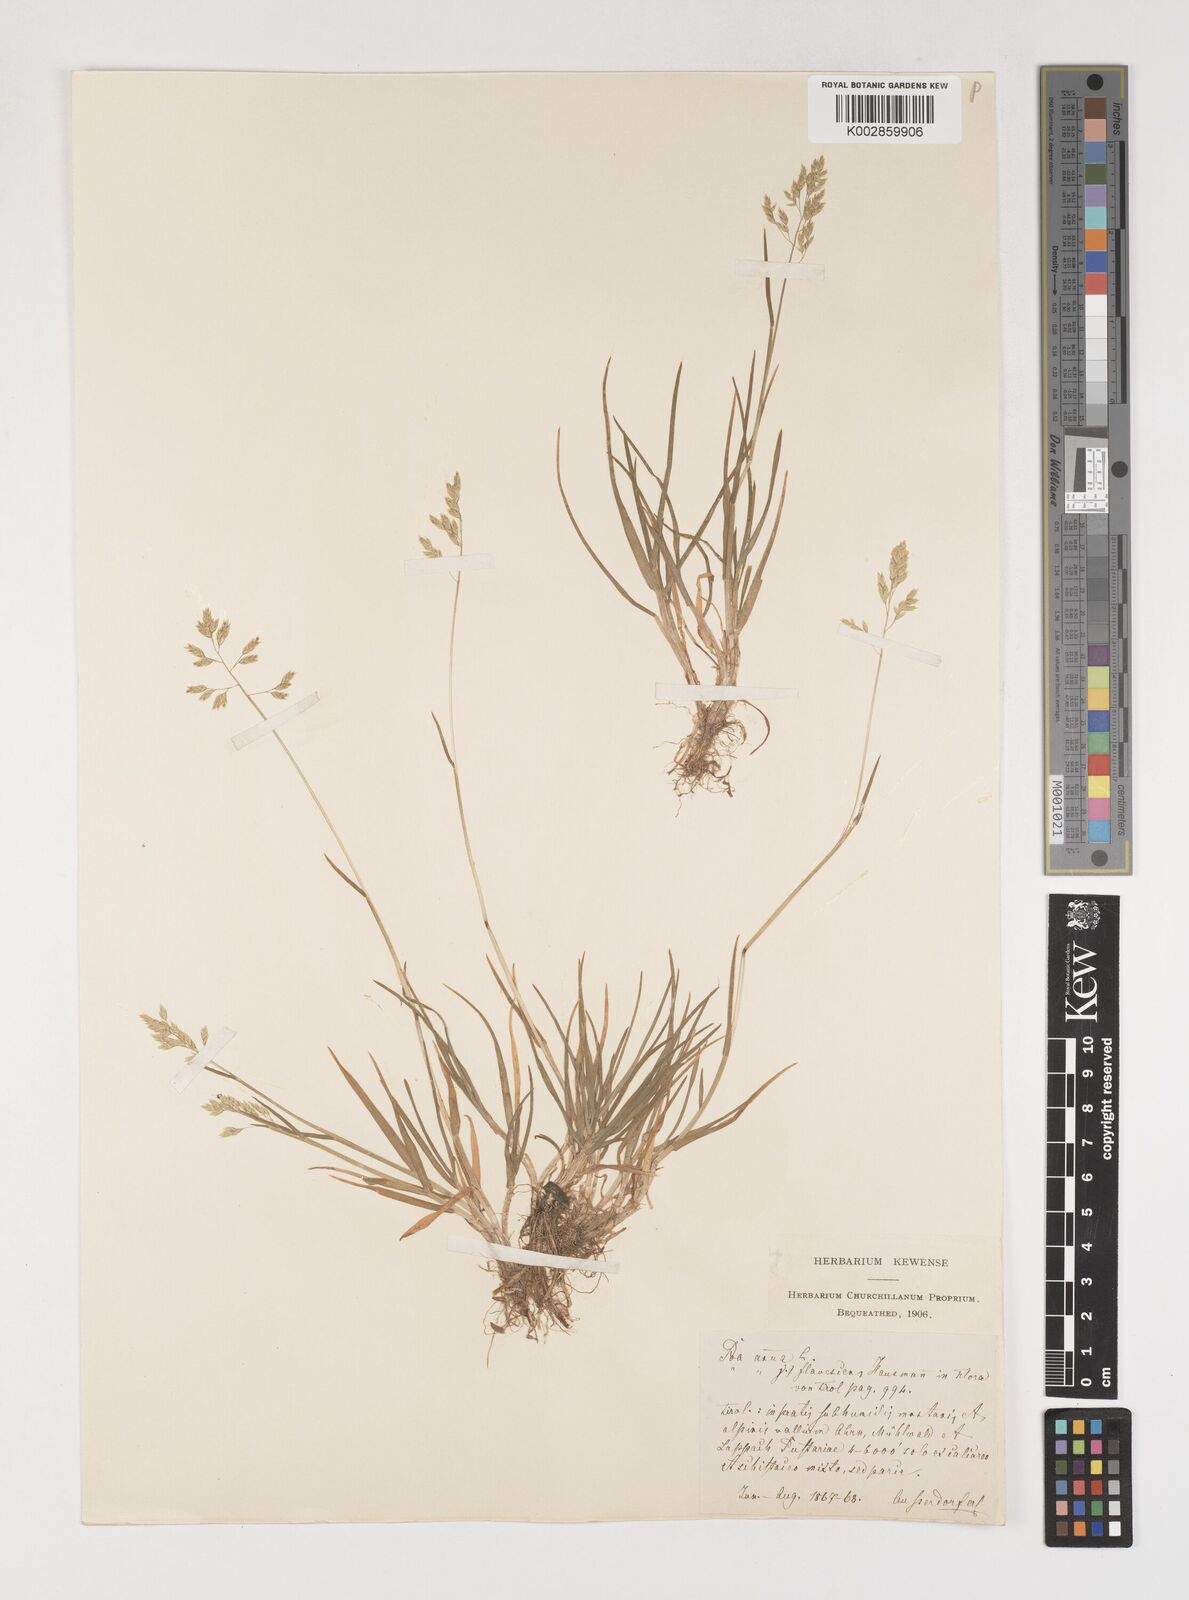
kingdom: Plantae
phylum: Tracheophyta
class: Liliopsida
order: Poales
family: Poaceae
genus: Poa
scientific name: Poa annua
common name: Annual bluegrass
